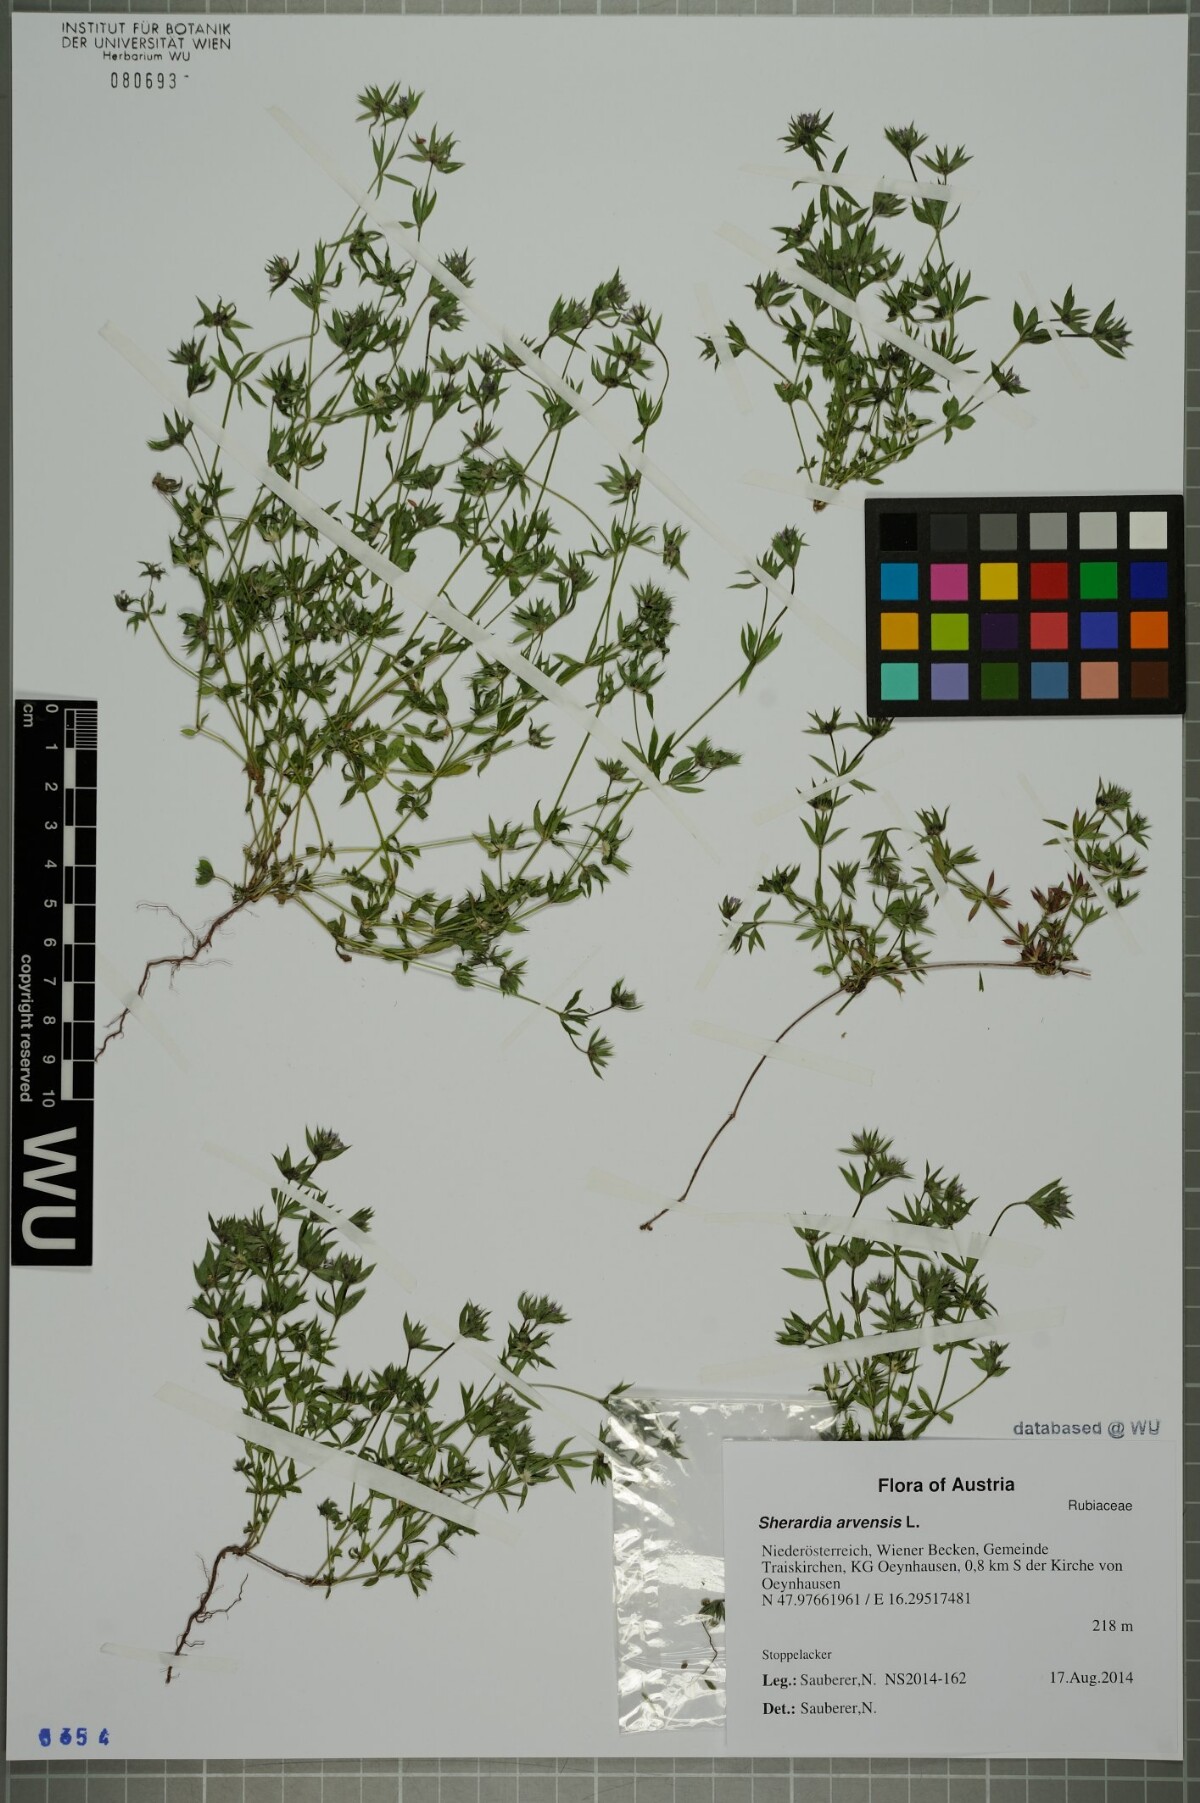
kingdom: Plantae
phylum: Tracheophyta
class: Magnoliopsida
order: Gentianales
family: Rubiaceae
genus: Sherardia
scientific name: Sherardia arvensis
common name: Field madder
